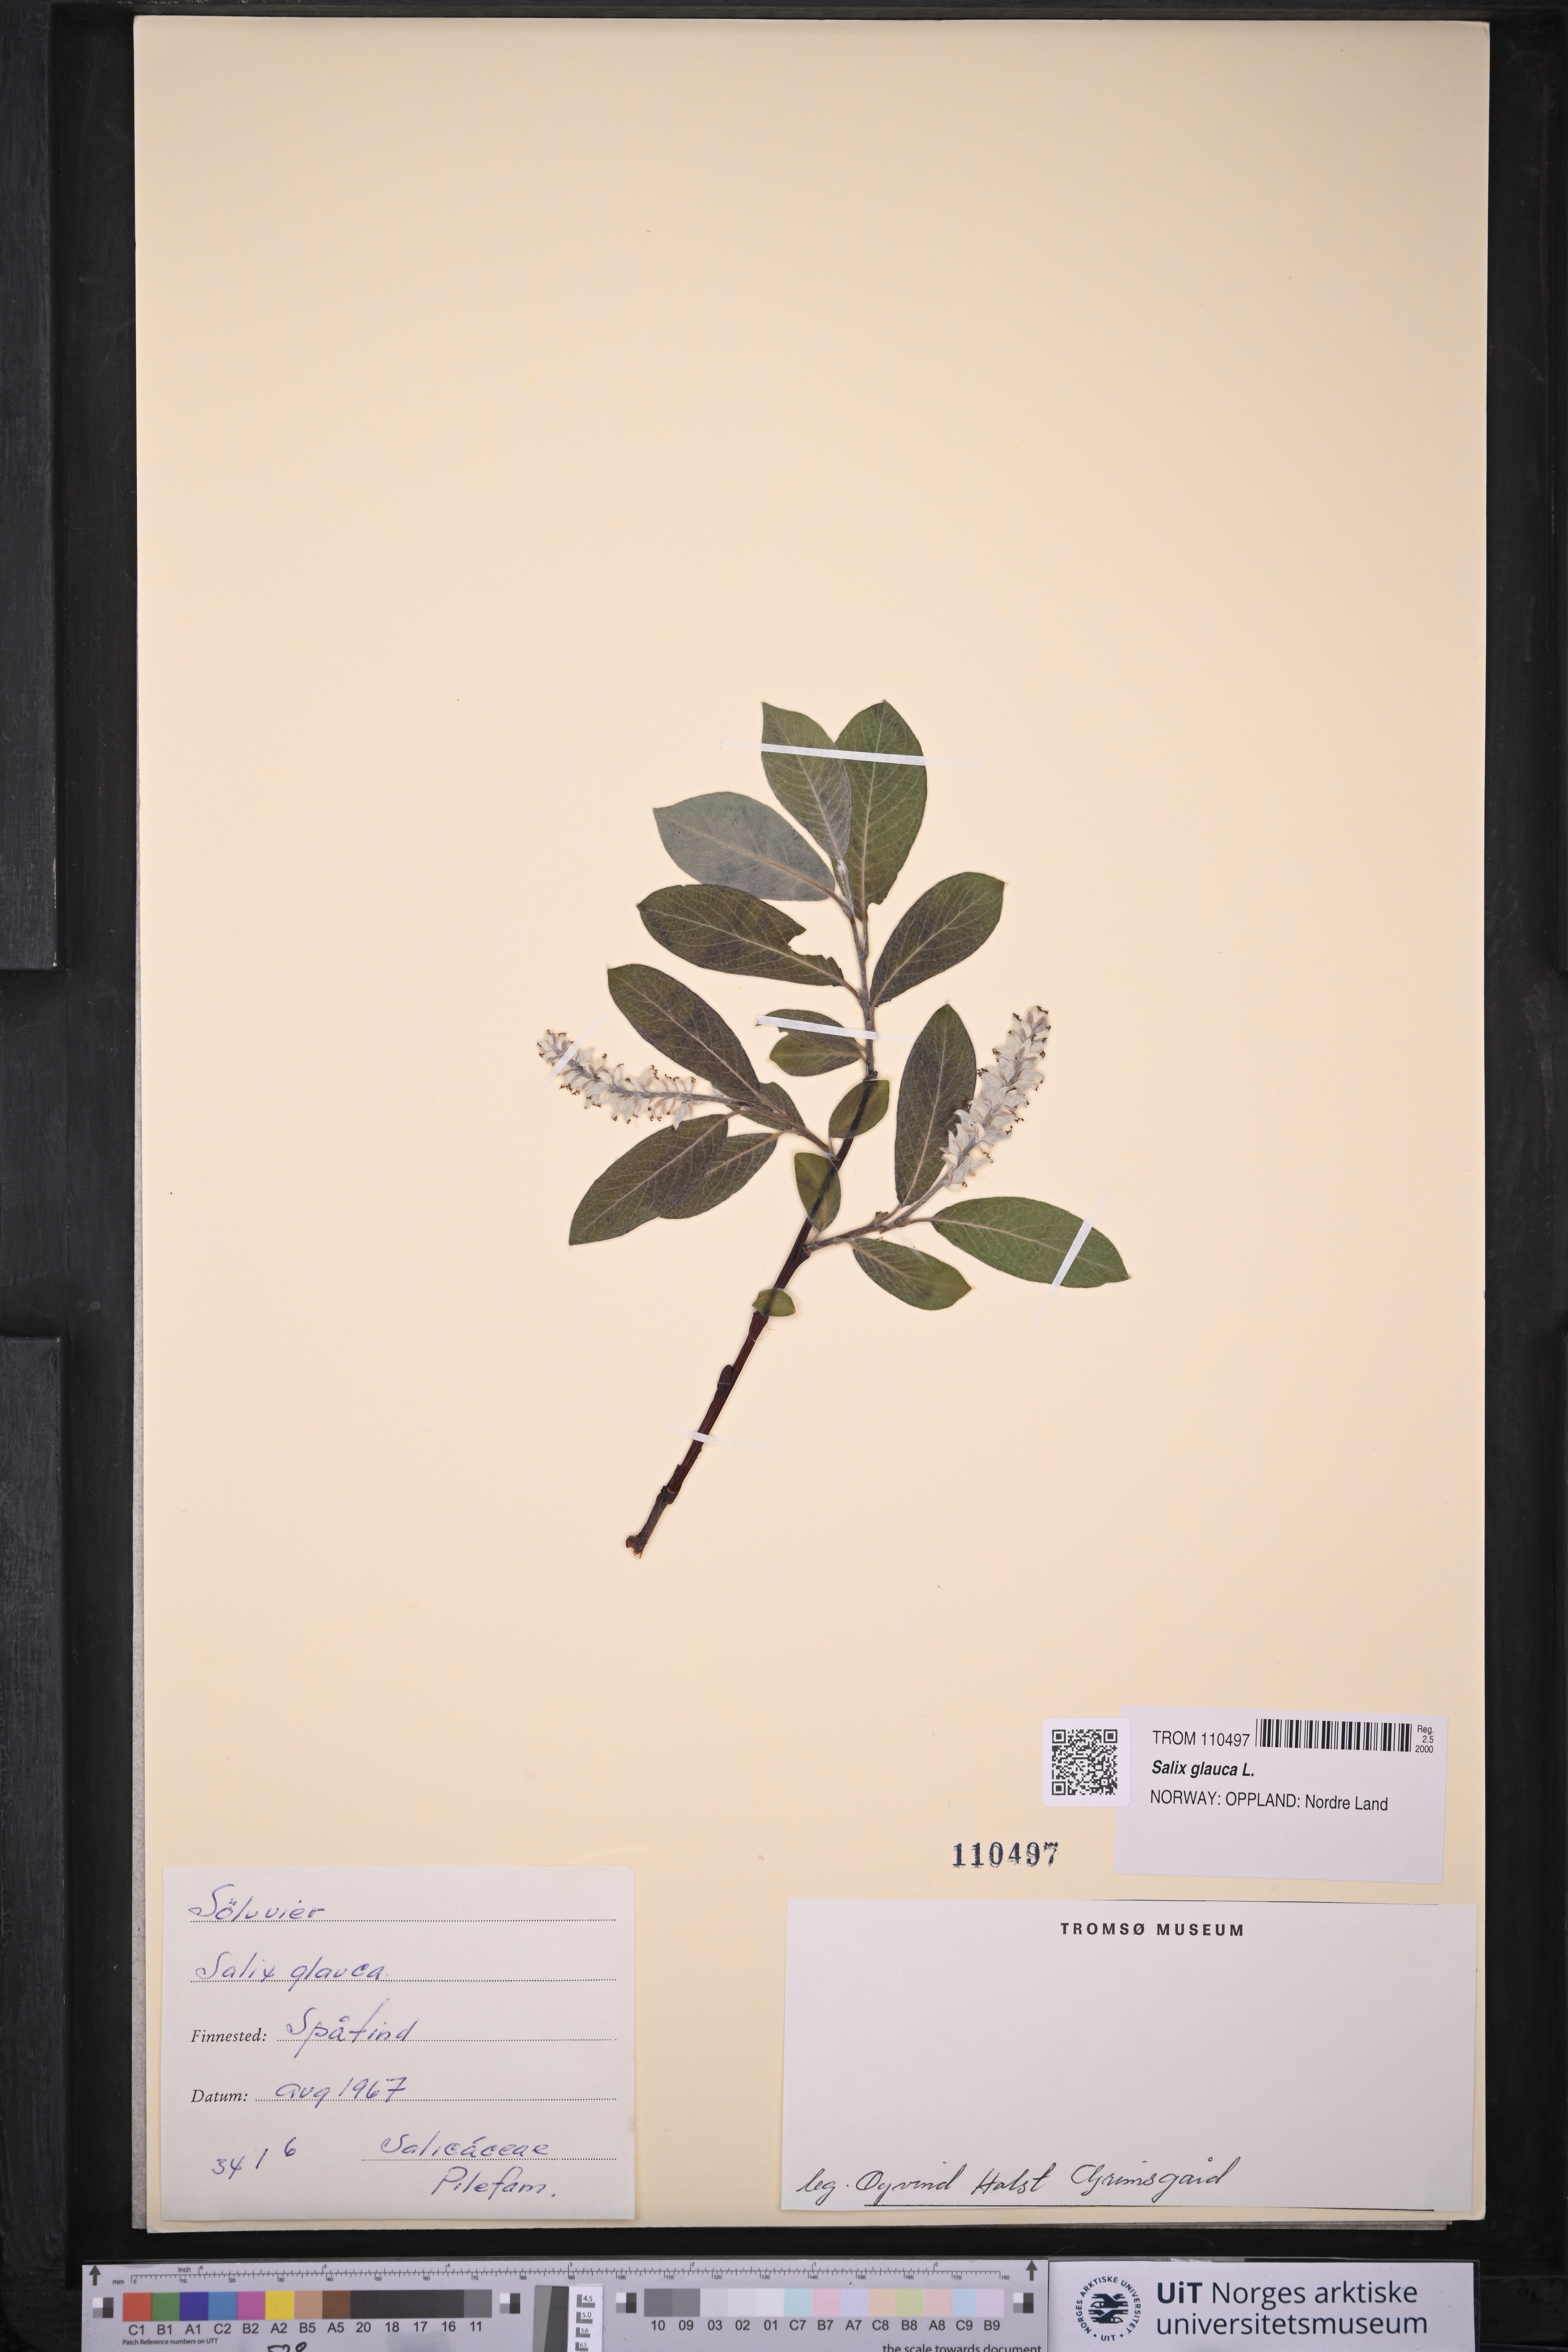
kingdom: Plantae
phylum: Tracheophyta
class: Magnoliopsida
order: Malpighiales
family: Salicaceae
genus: Salix
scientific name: Salix glauca
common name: Glaucous willow
